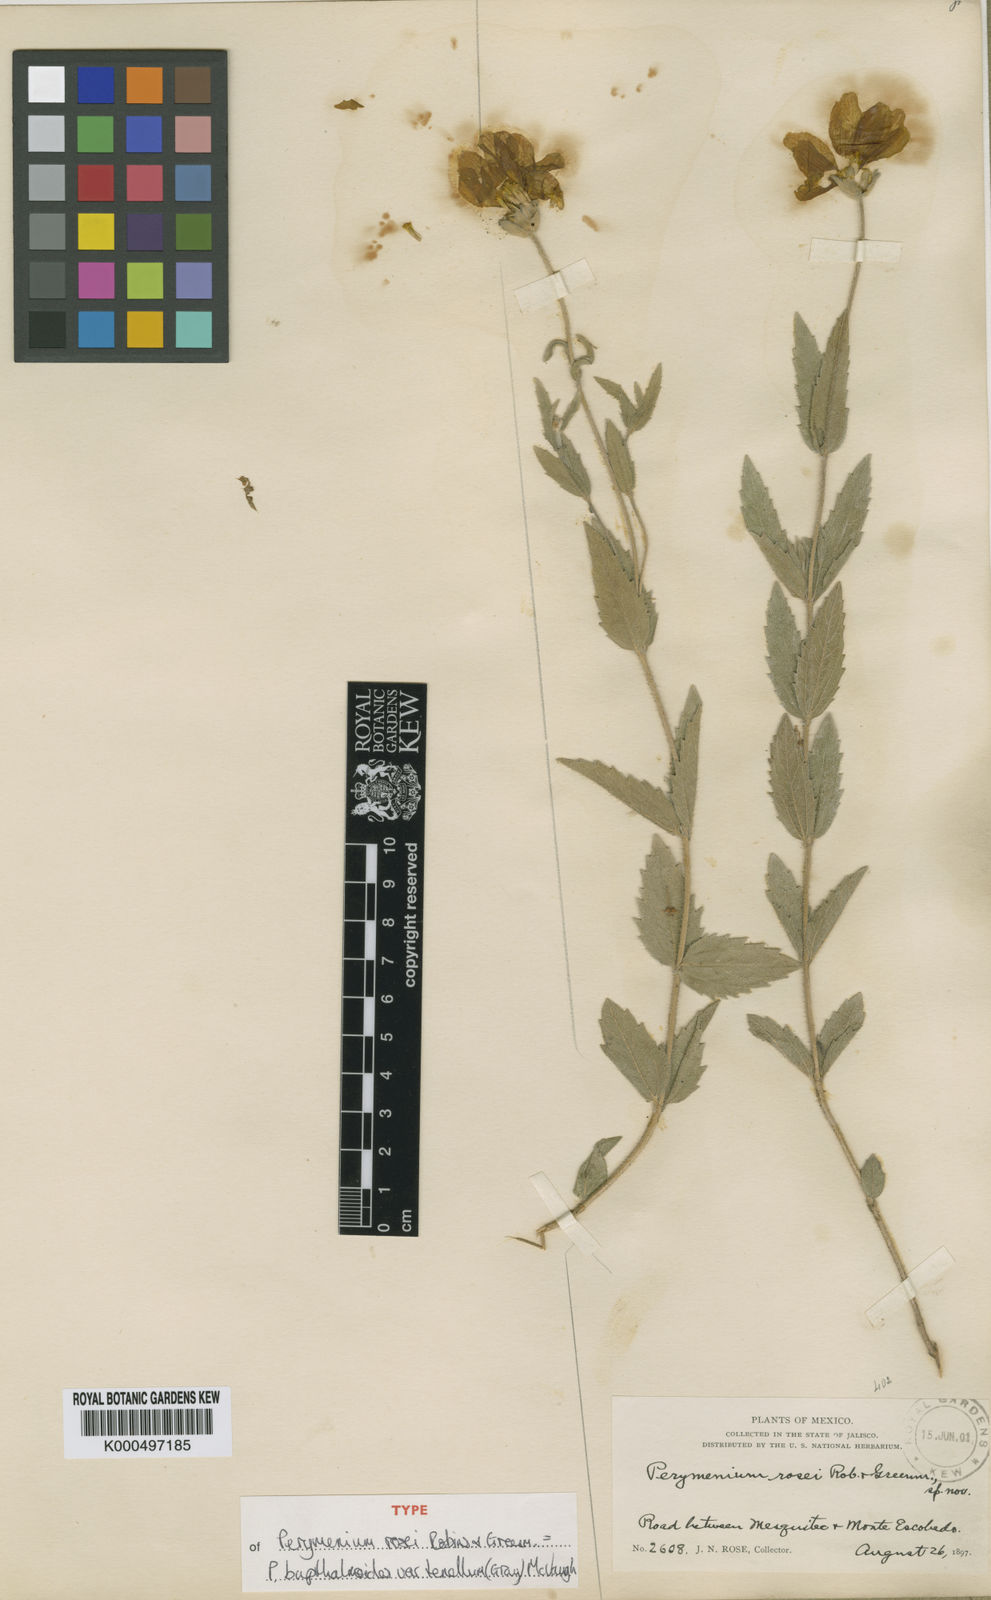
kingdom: Plantae
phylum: Tracheophyta
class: Magnoliopsida
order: Asterales
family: Asteraceae
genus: Perymenium
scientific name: Perymenium buphthalmoides
